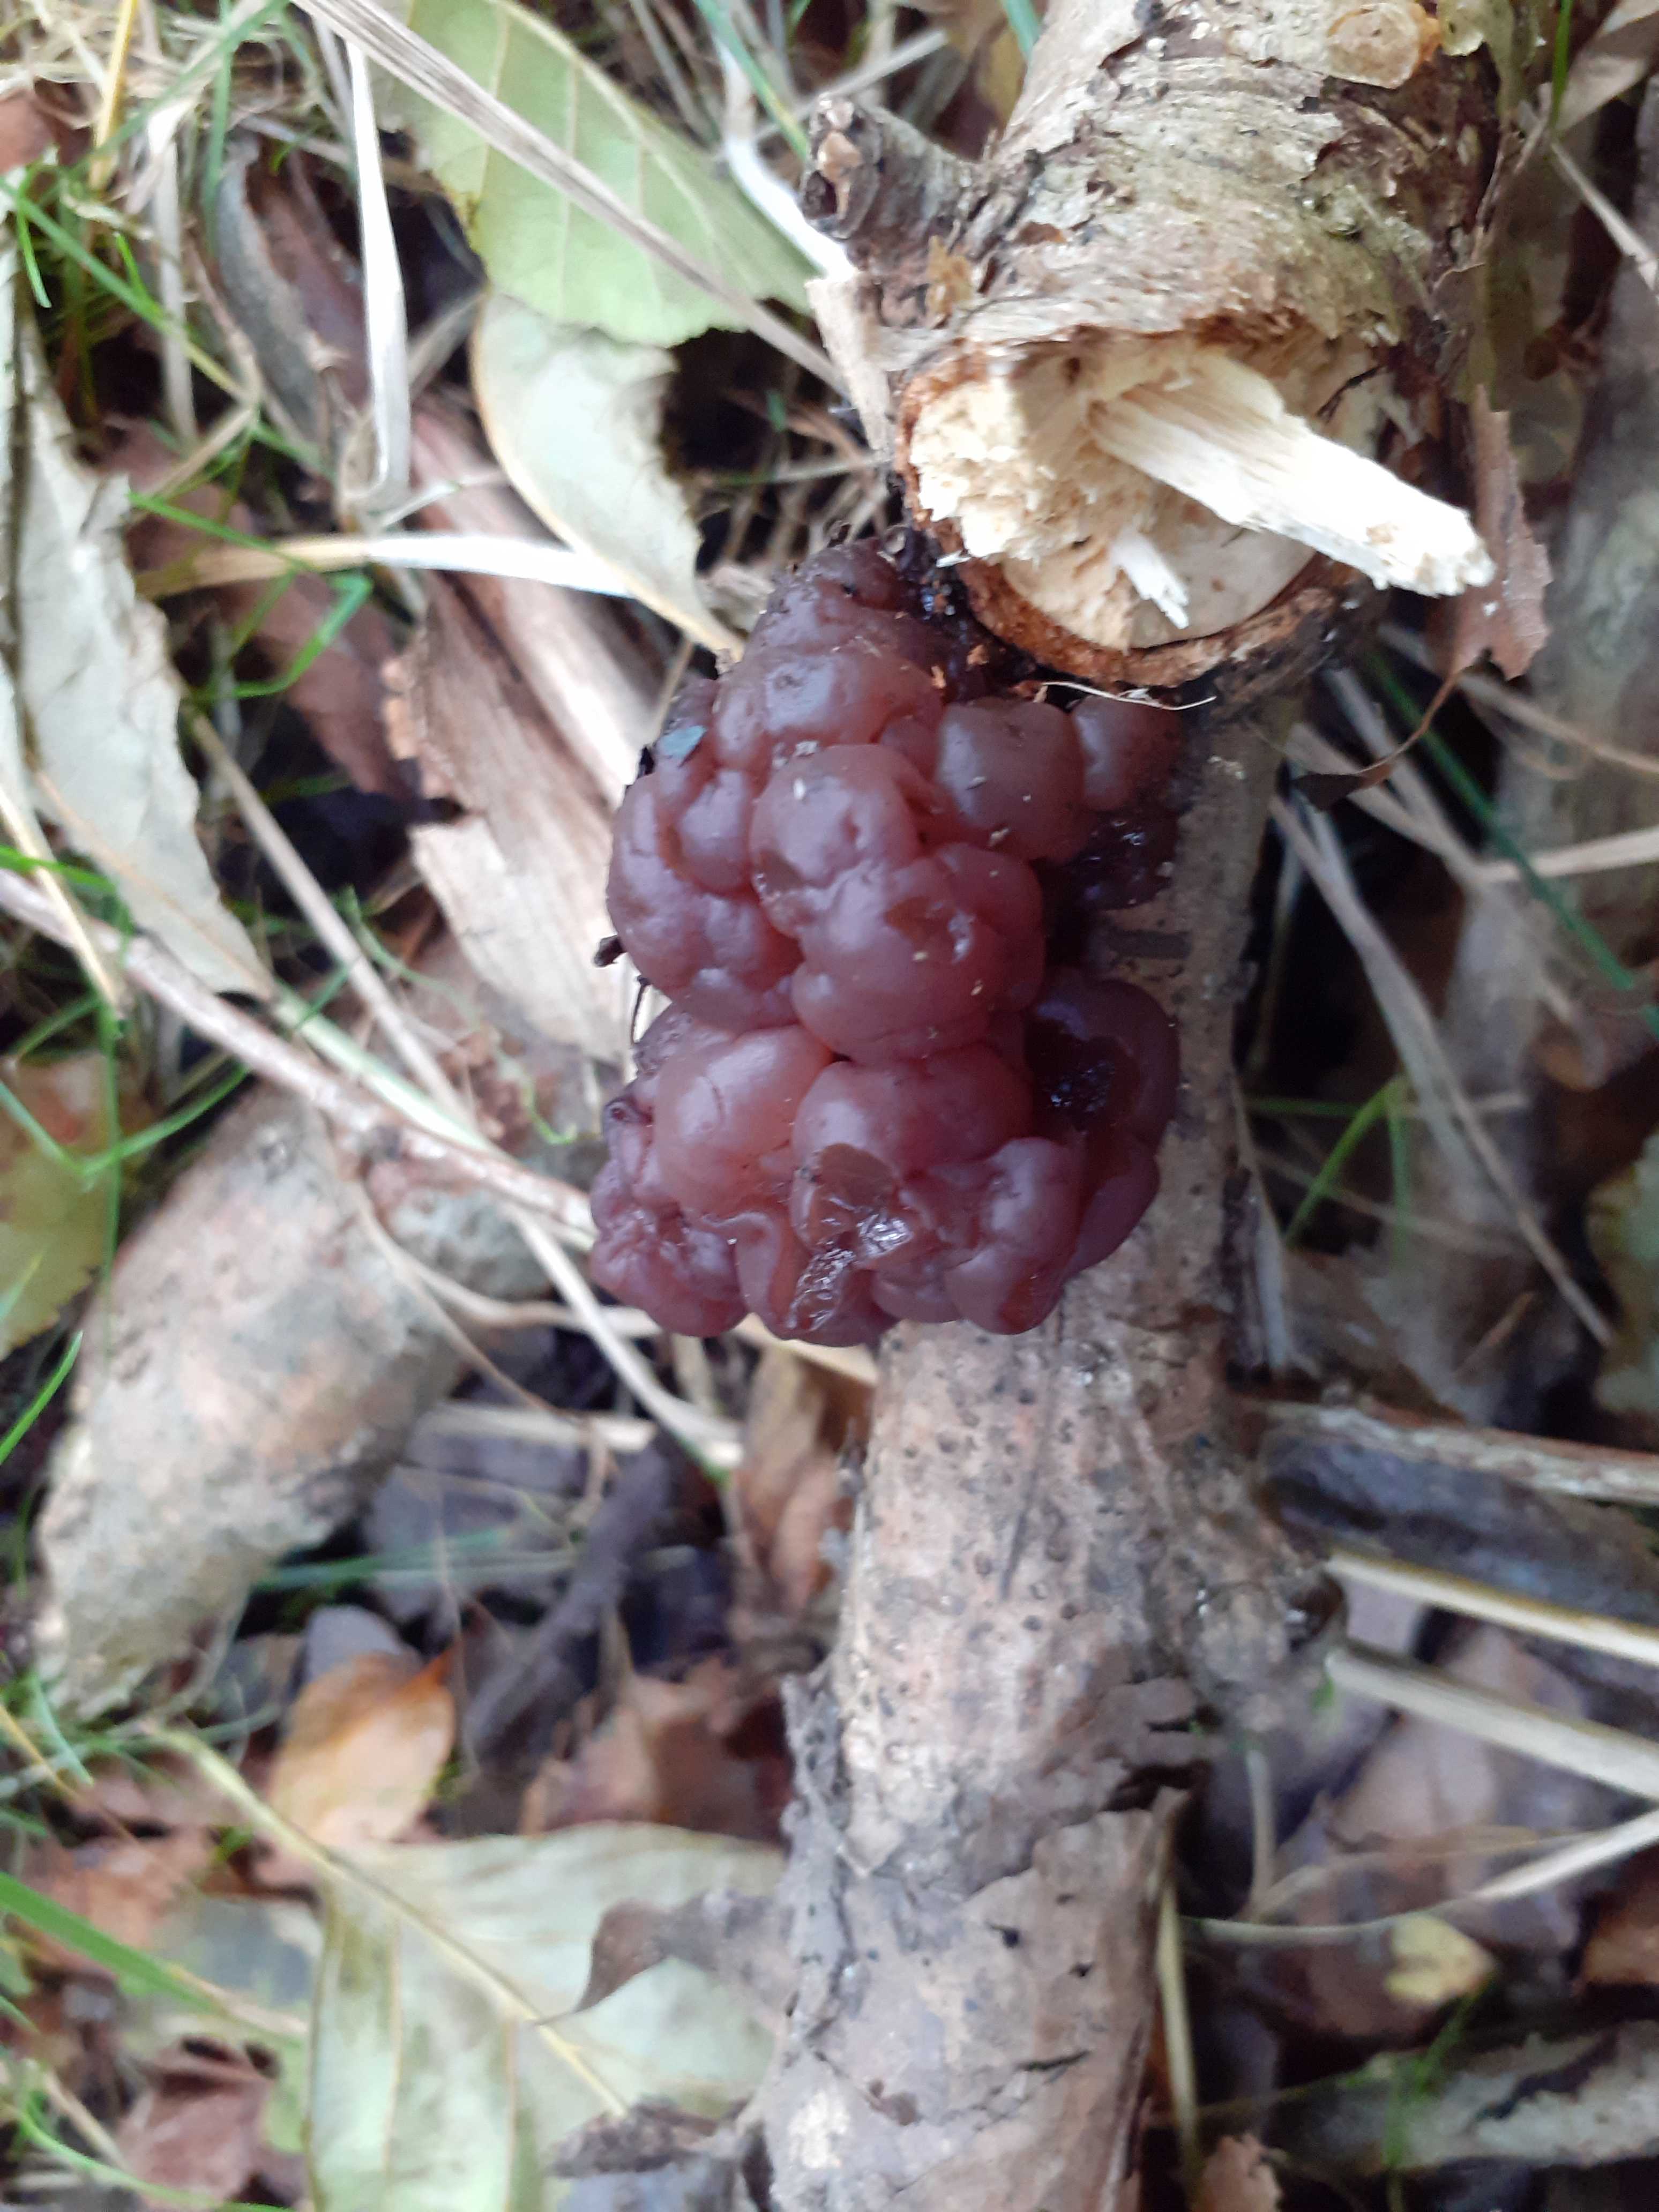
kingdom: Fungi
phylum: Ascomycota
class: Leotiomycetes
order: Helotiales
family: Gelatinodiscaceae
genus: Ascotremella
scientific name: Ascotremella faginea
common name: hjerne-bævreskive
